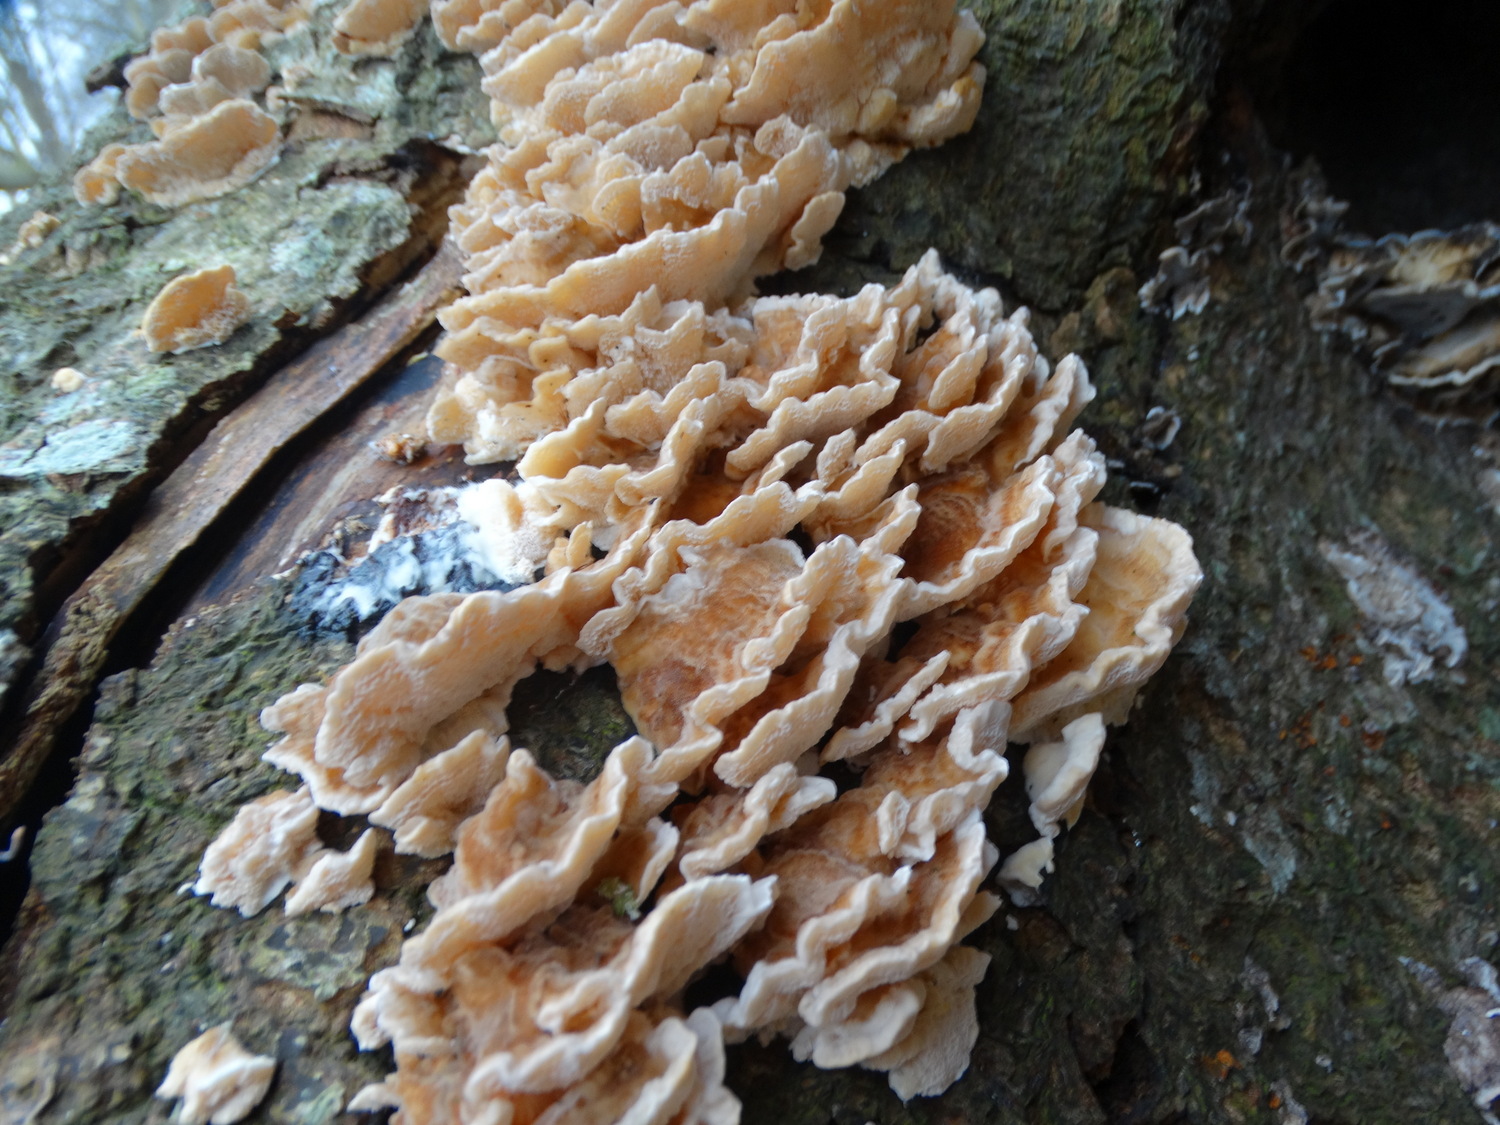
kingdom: Fungi
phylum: Basidiomycota
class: Agaricomycetes
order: Polyporales
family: Polyporaceae
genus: Trametes
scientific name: Trametes
